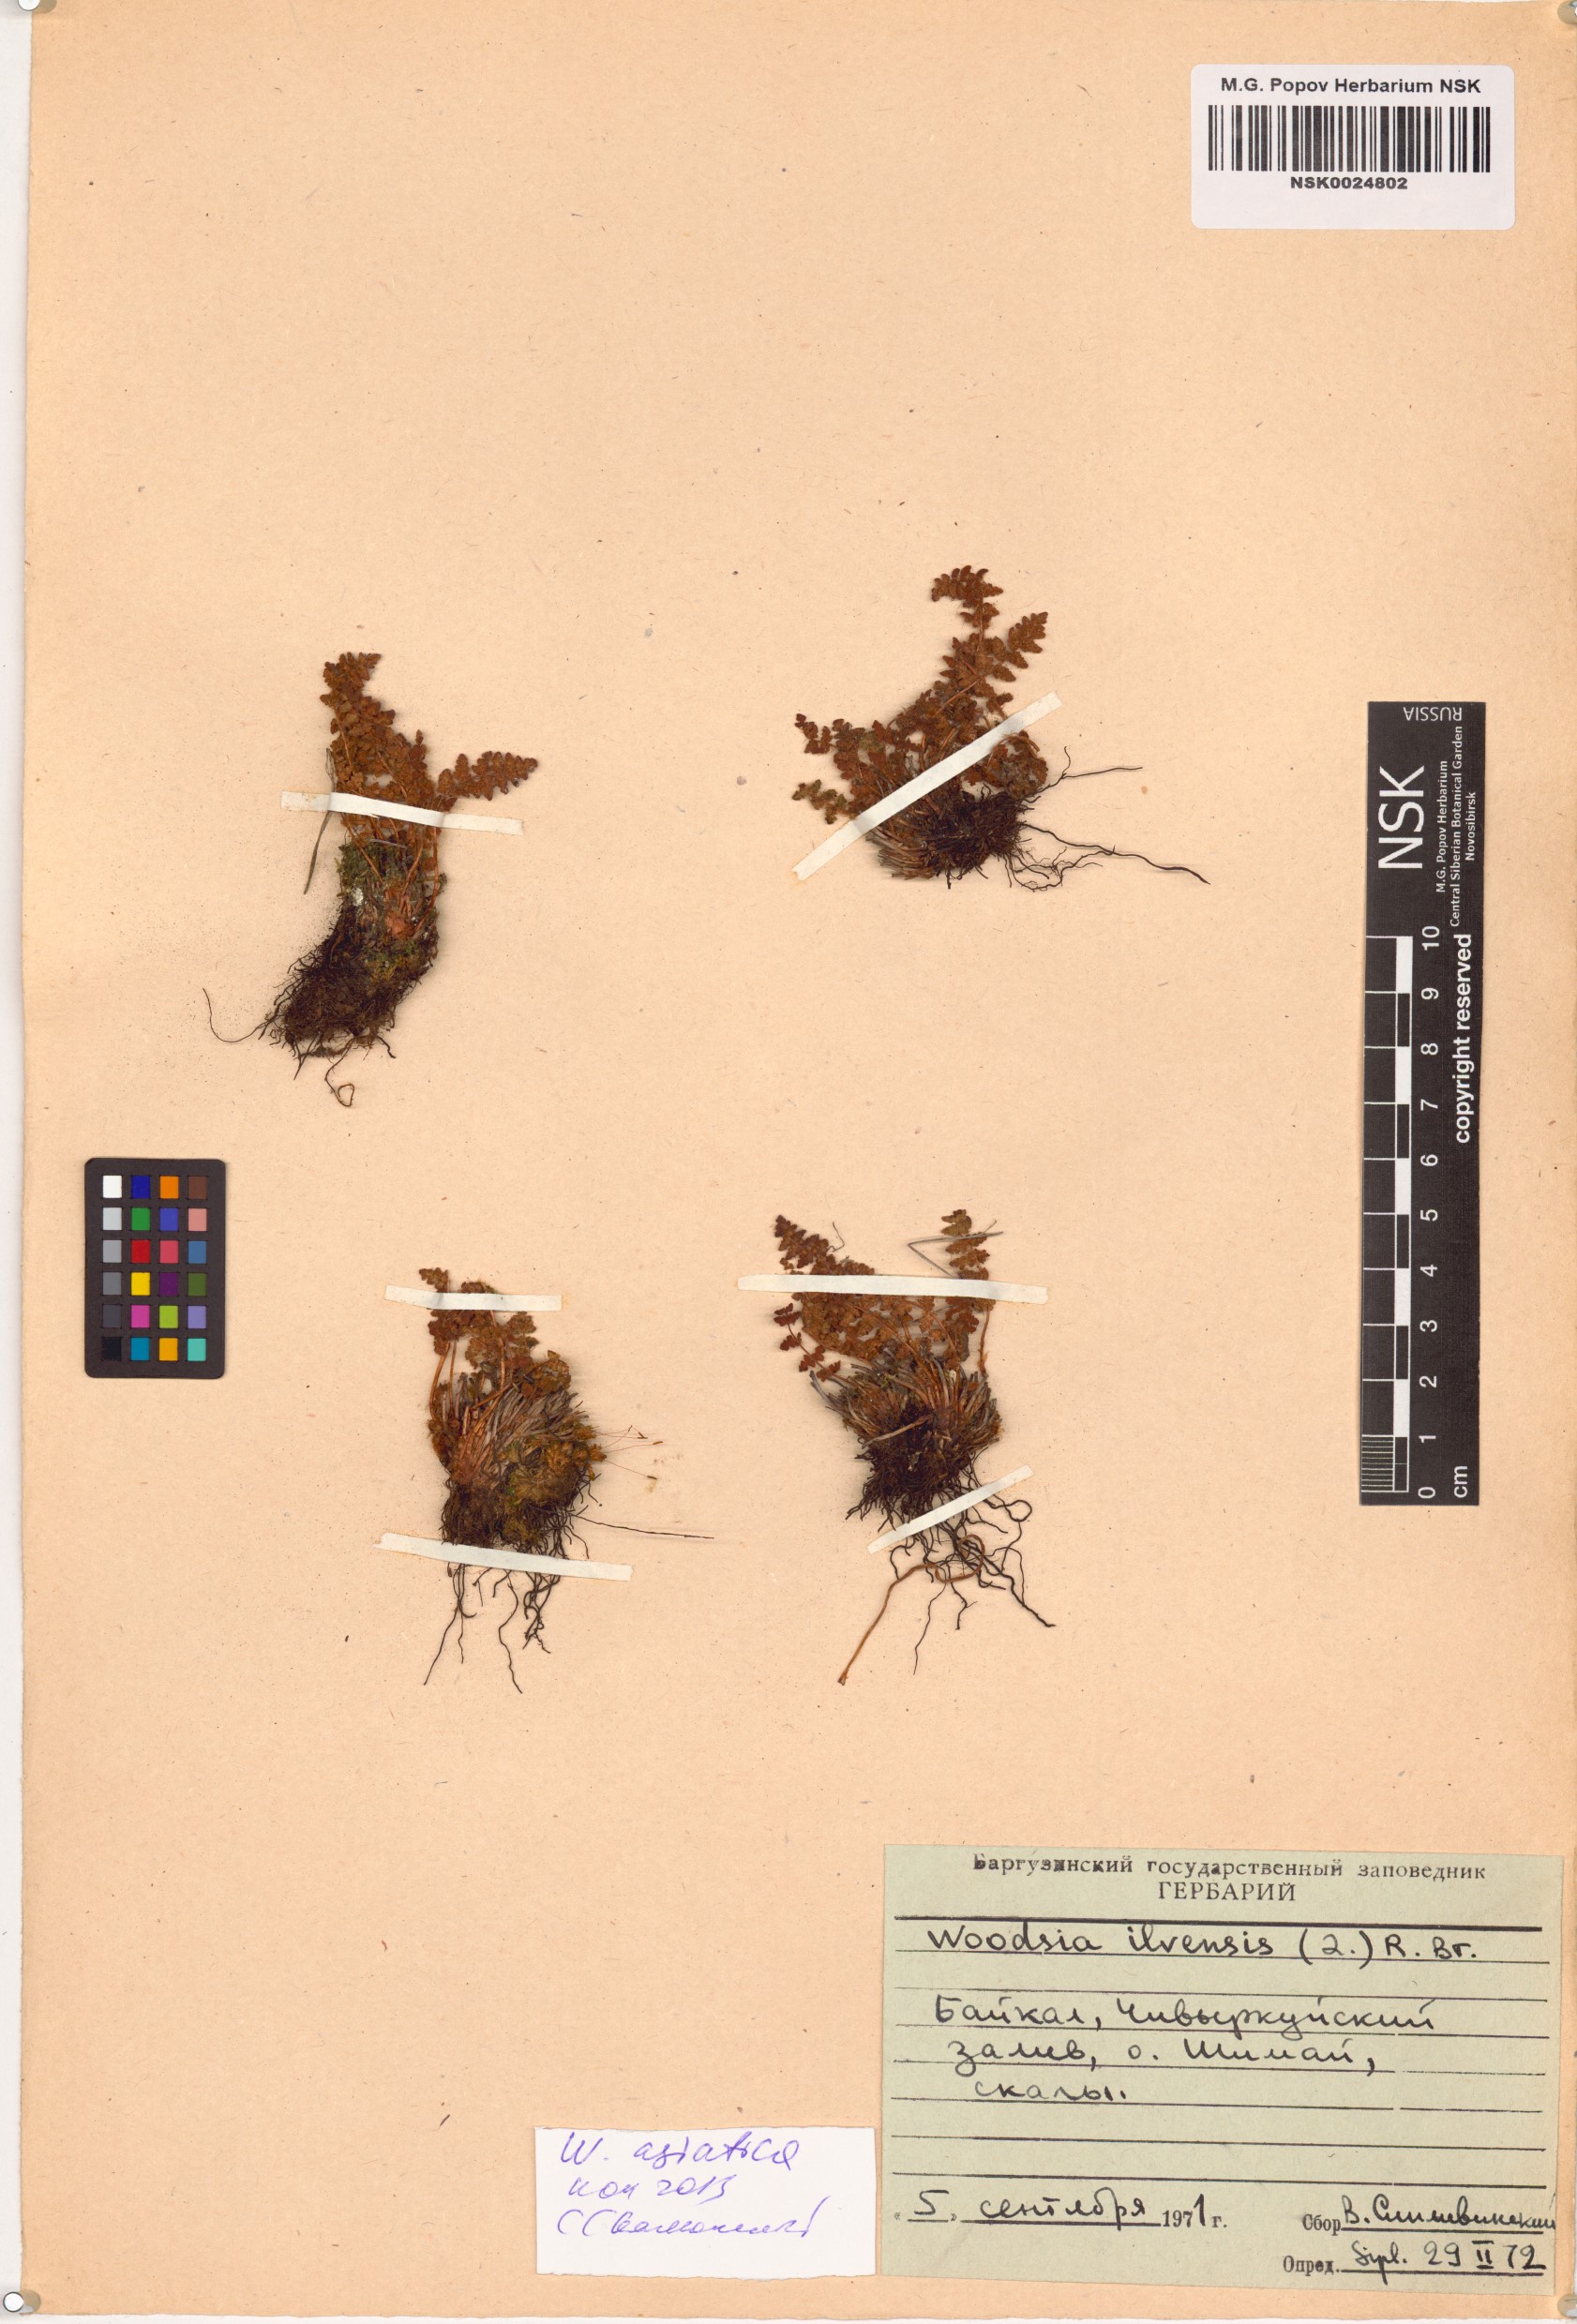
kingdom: Plantae
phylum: Tracheophyta
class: Polypodiopsida
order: Polypodiales
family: Woodsiaceae
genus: Woodsia
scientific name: Woodsia asiatica
